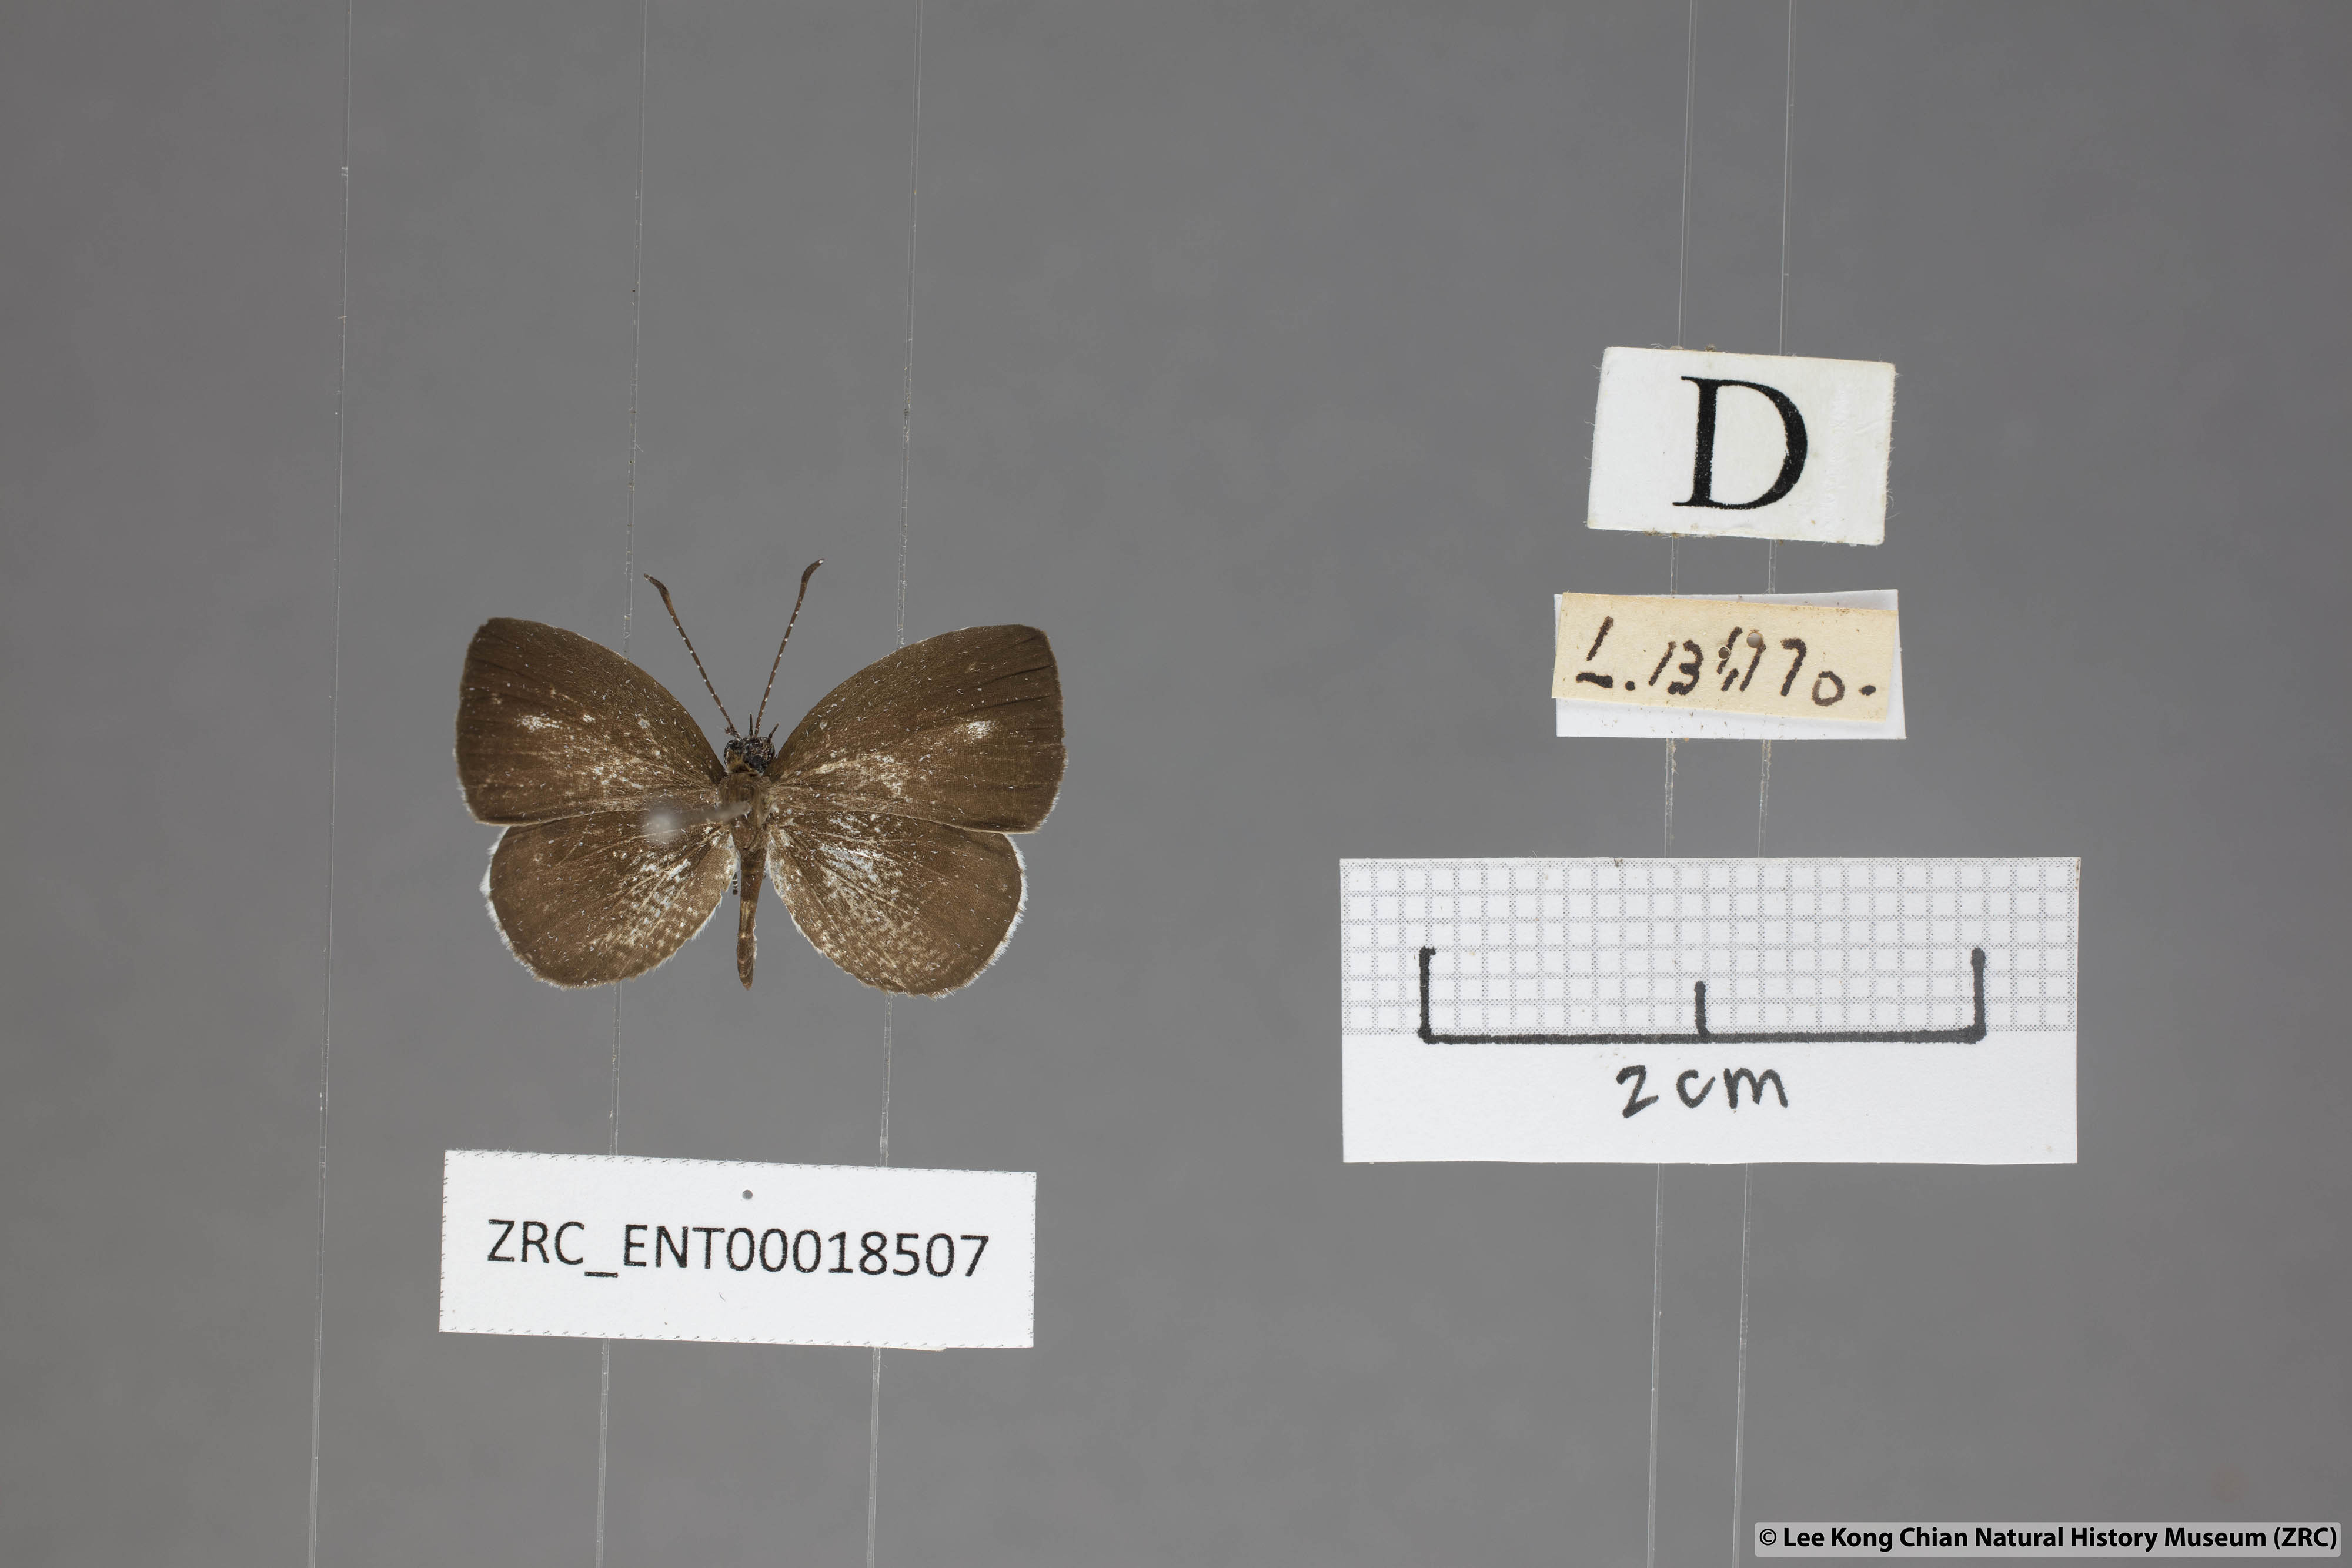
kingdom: Animalia
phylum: Arthropoda
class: Insecta
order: Lepidoptera
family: Lycaenidae
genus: Neopithecops
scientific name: Neopithecops zalmora
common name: Quaker
